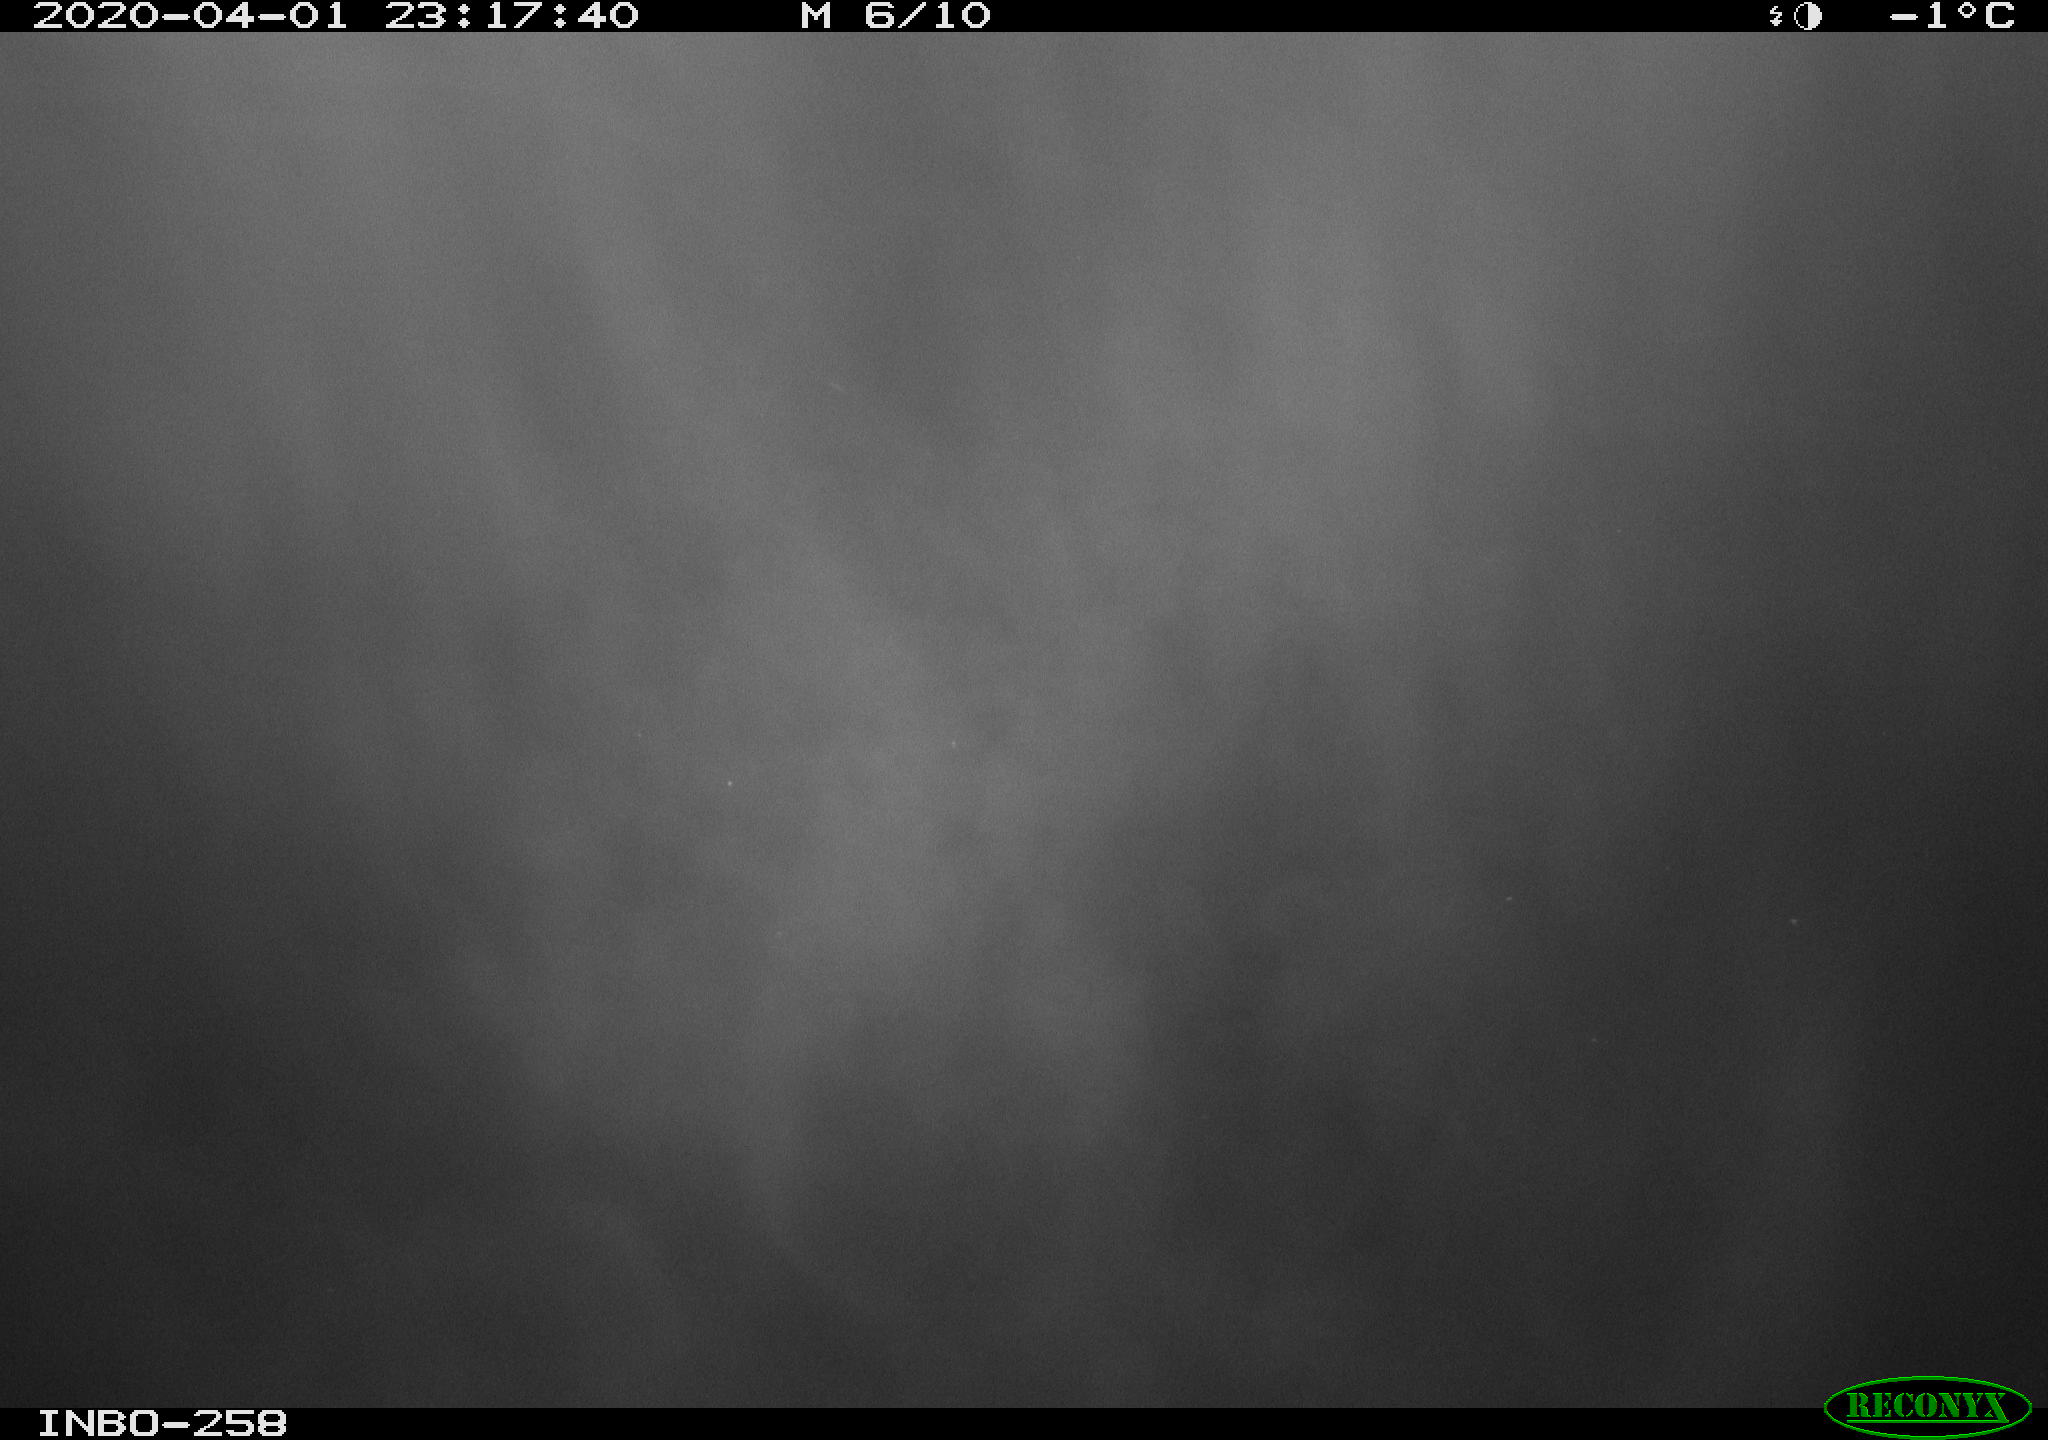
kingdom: Animalia
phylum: Chordata
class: Aves
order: Anseriformes
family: Anatidae
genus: Anas
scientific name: Anas platyrhynchos
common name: Mallard
